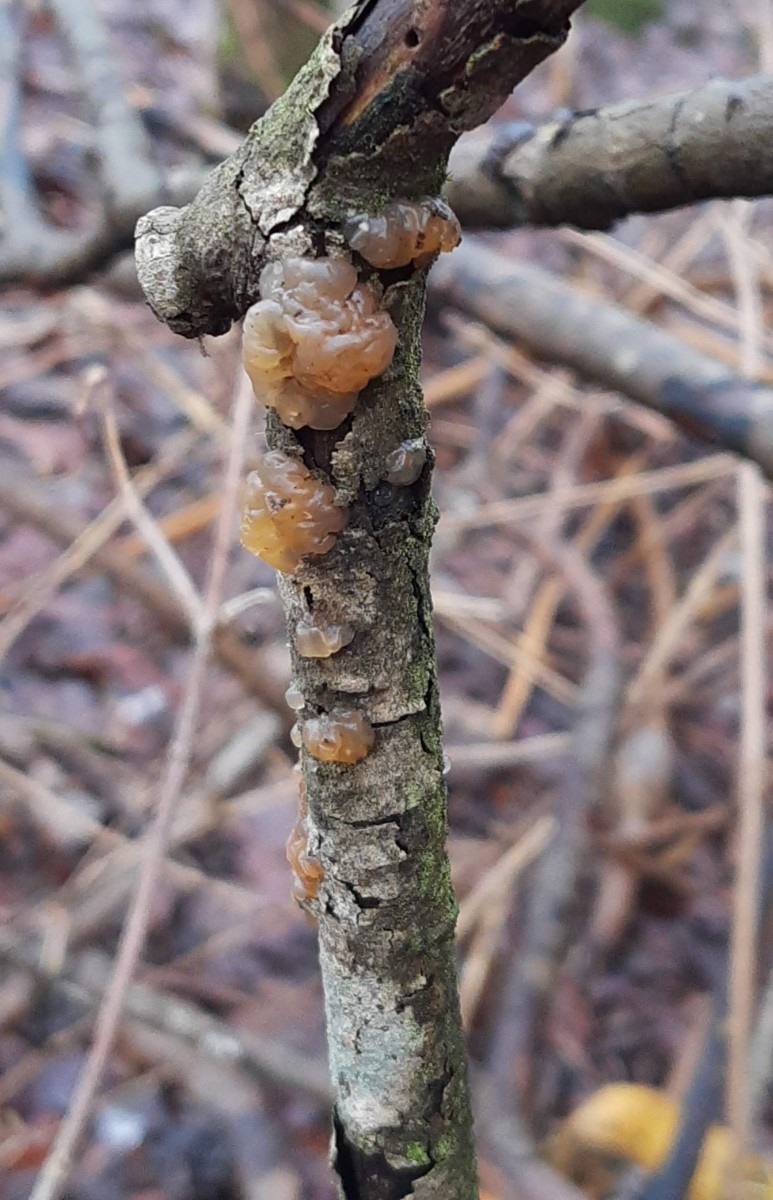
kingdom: Fungi
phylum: Basidiomycota
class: Agaricomycetes
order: Auriculariales
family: Hyaloriaceae
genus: Myxarium
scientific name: Myxarium hyalinum
